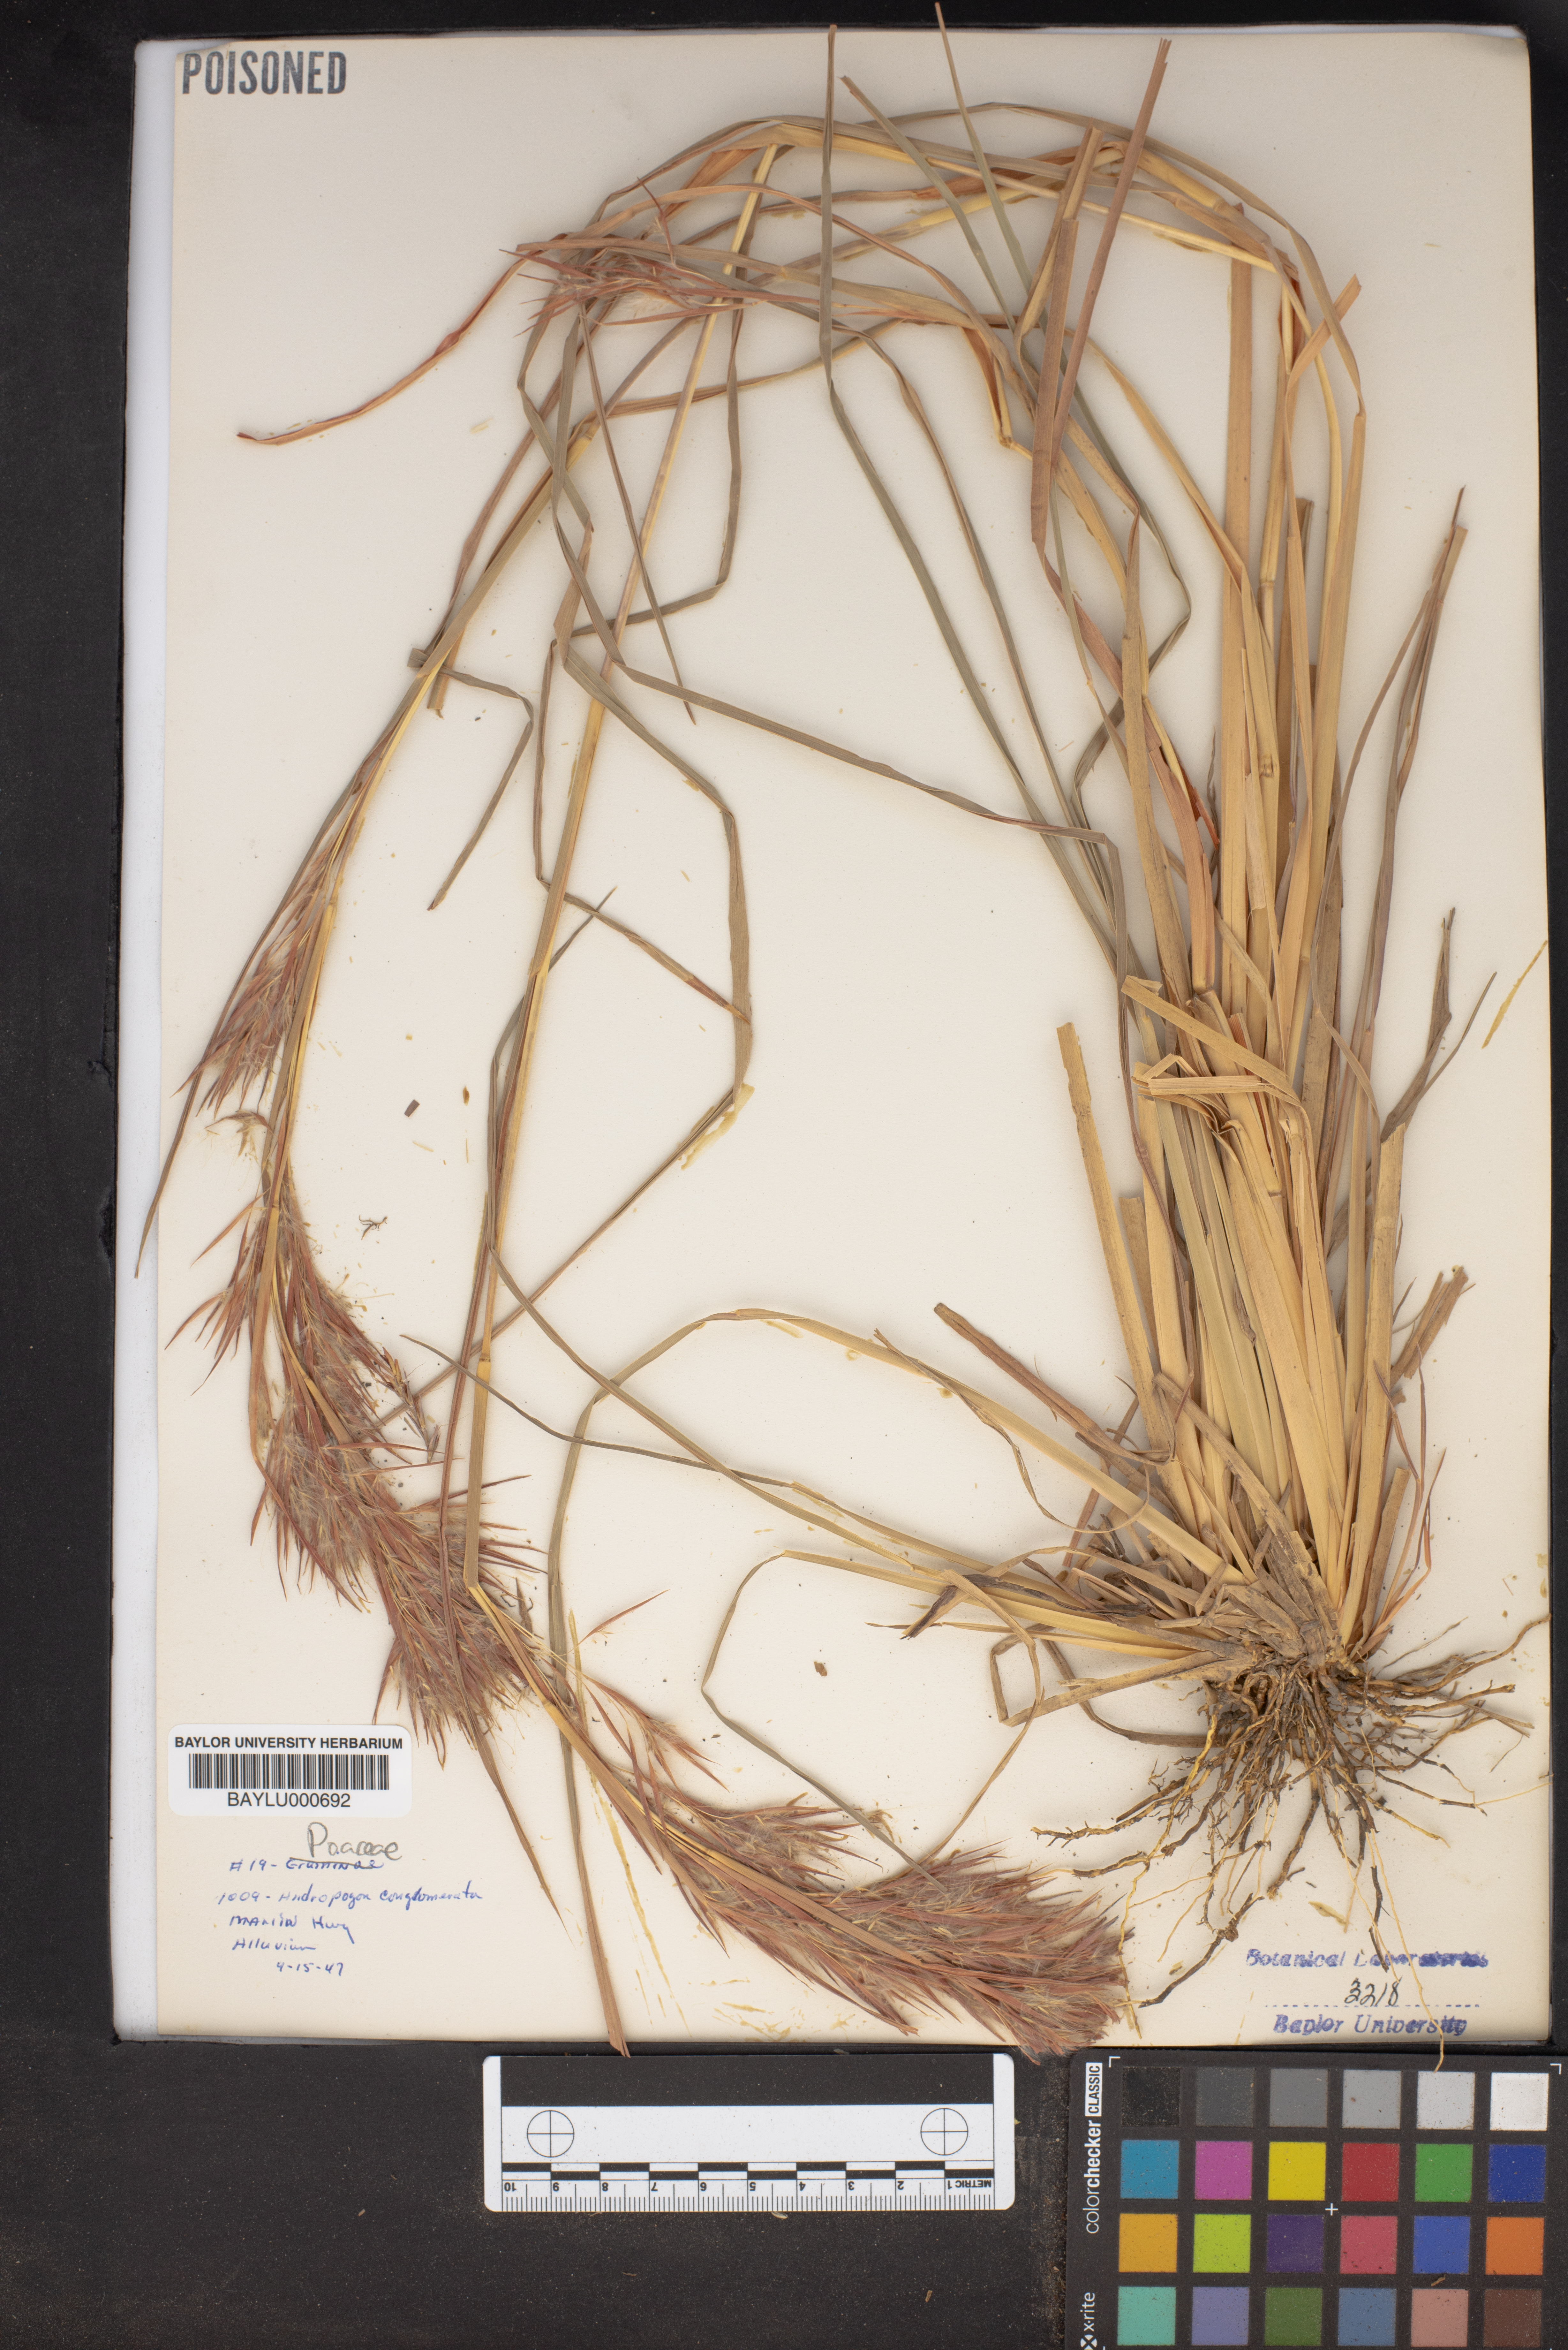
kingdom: Plantae
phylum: Tracheophyta
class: Liliopsida
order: Poales
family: Poaceae
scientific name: Poaceae
